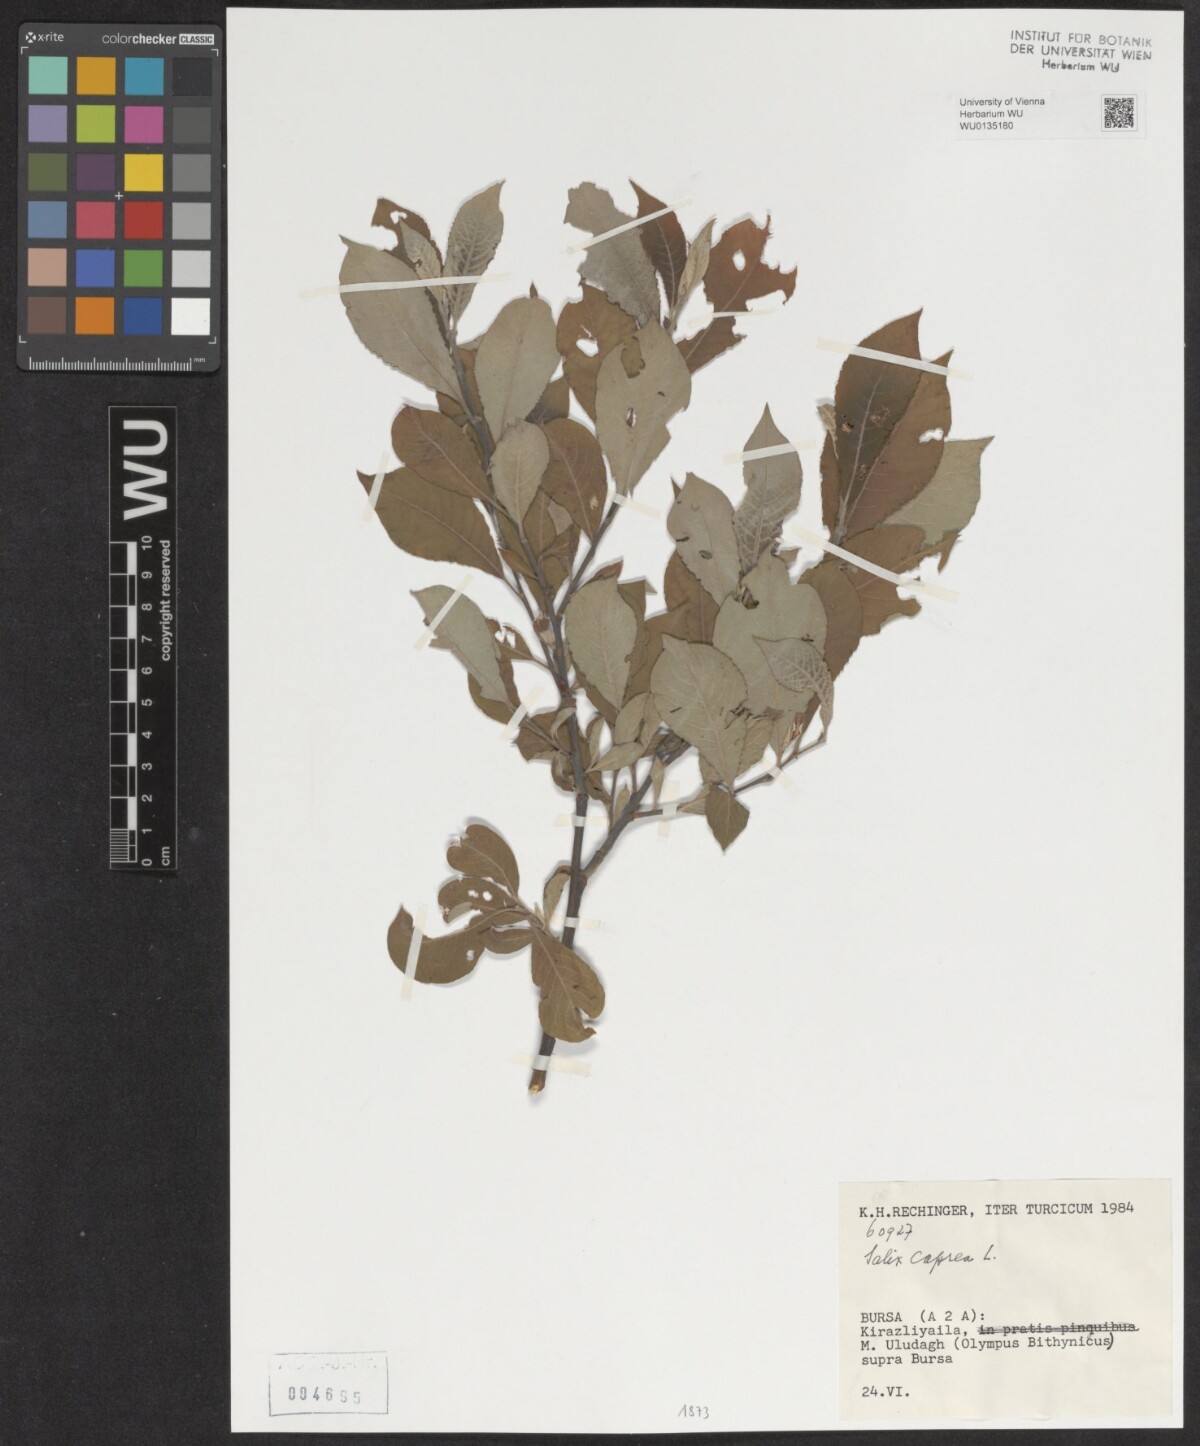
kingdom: Plantae
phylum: Tracheophyta
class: Magnoliopsida
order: Malpighiales
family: Salicaceae
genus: Salix
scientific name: Salix caprea
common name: Goat willow
